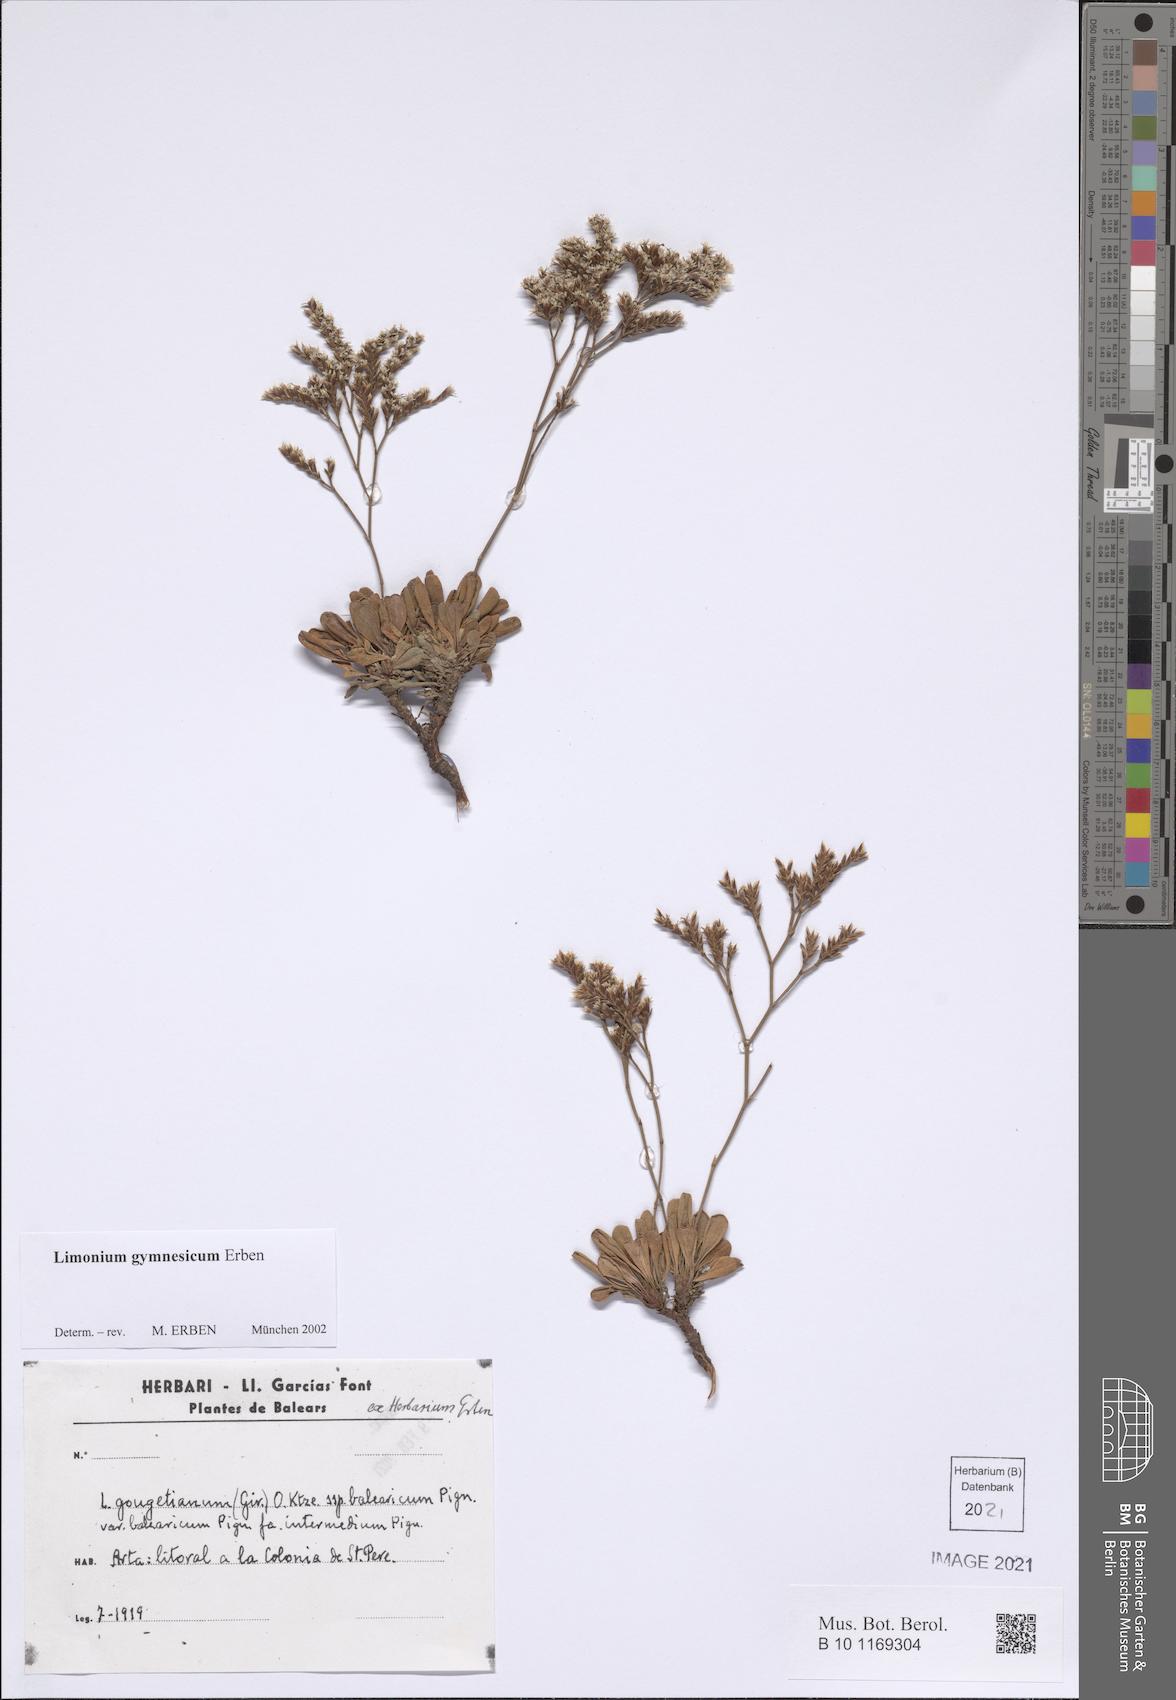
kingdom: Plantae
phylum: Tracheophyta
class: Magnoliopsida
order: Caryophyllales
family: Plumbaginaceae
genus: Limonium
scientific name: Limonium gymnesicum
